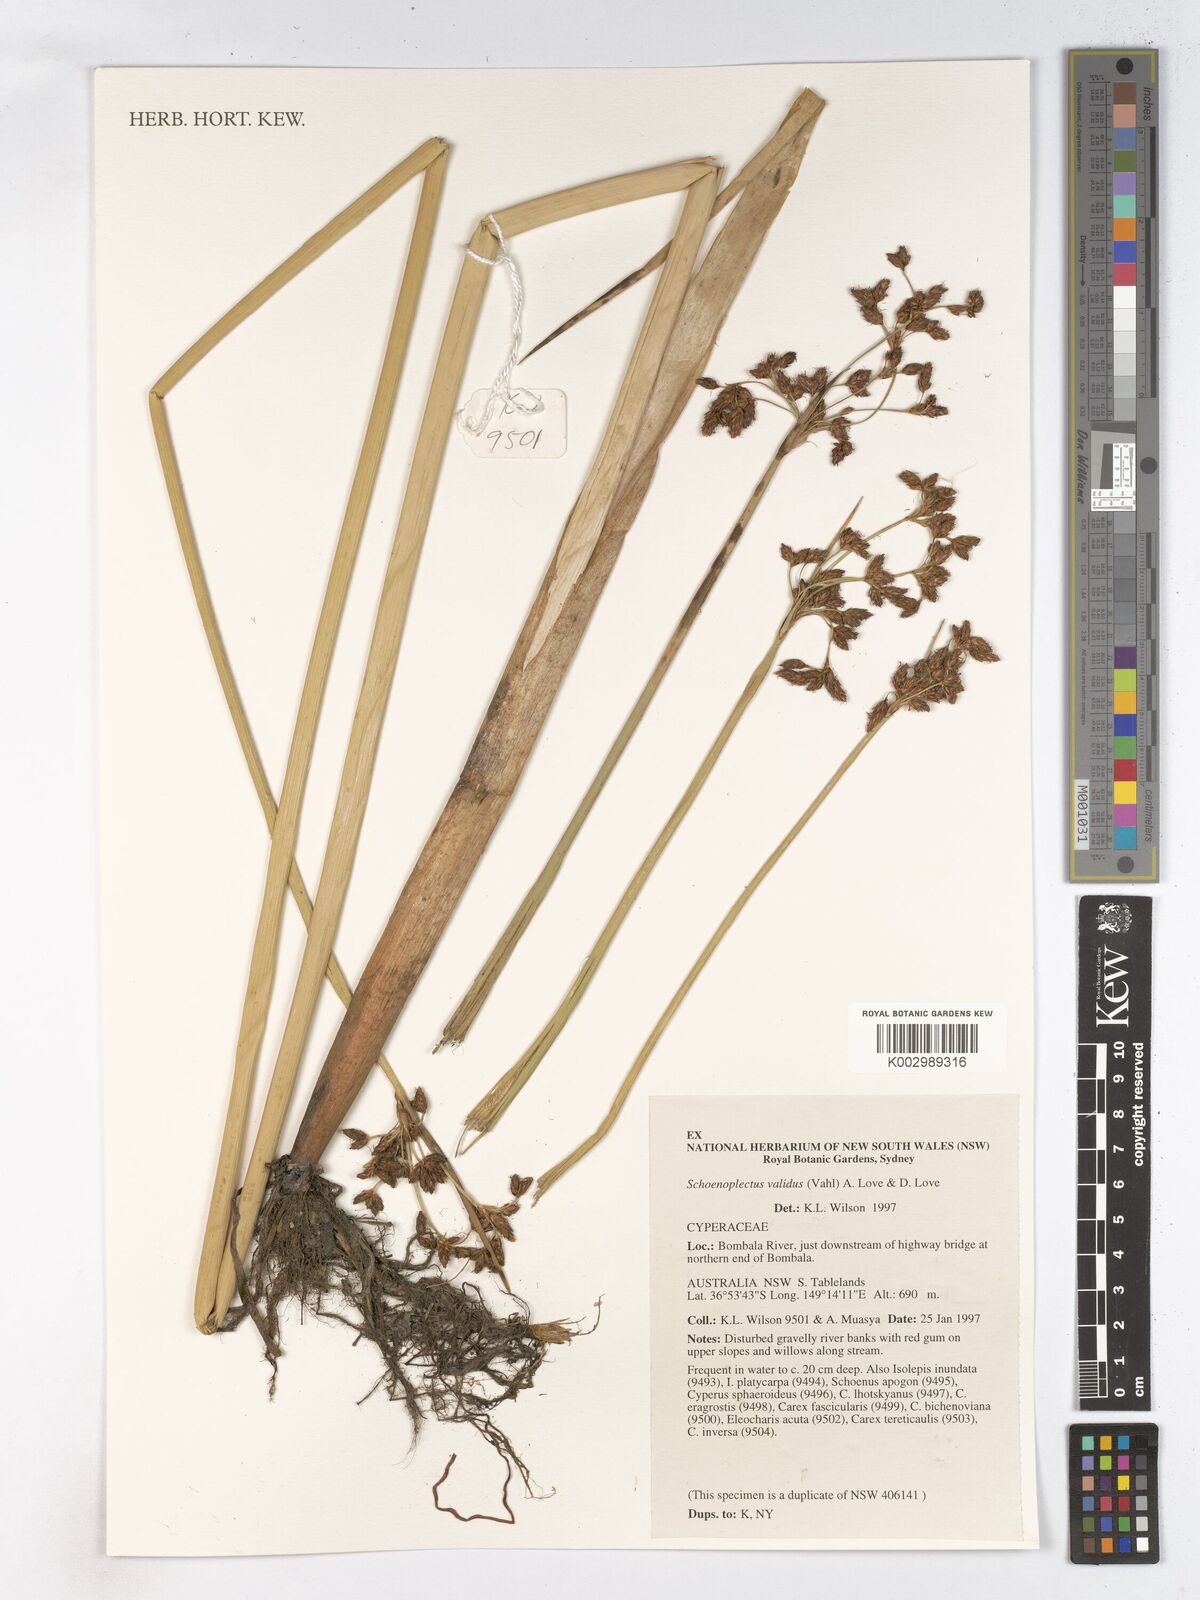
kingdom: Plantae
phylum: Tracheophyta
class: Liliopsida
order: Poales
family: Cyperaceae
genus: Schoenoplectus
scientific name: Schoenoplectus tabernaemontani
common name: Grey club-rush
